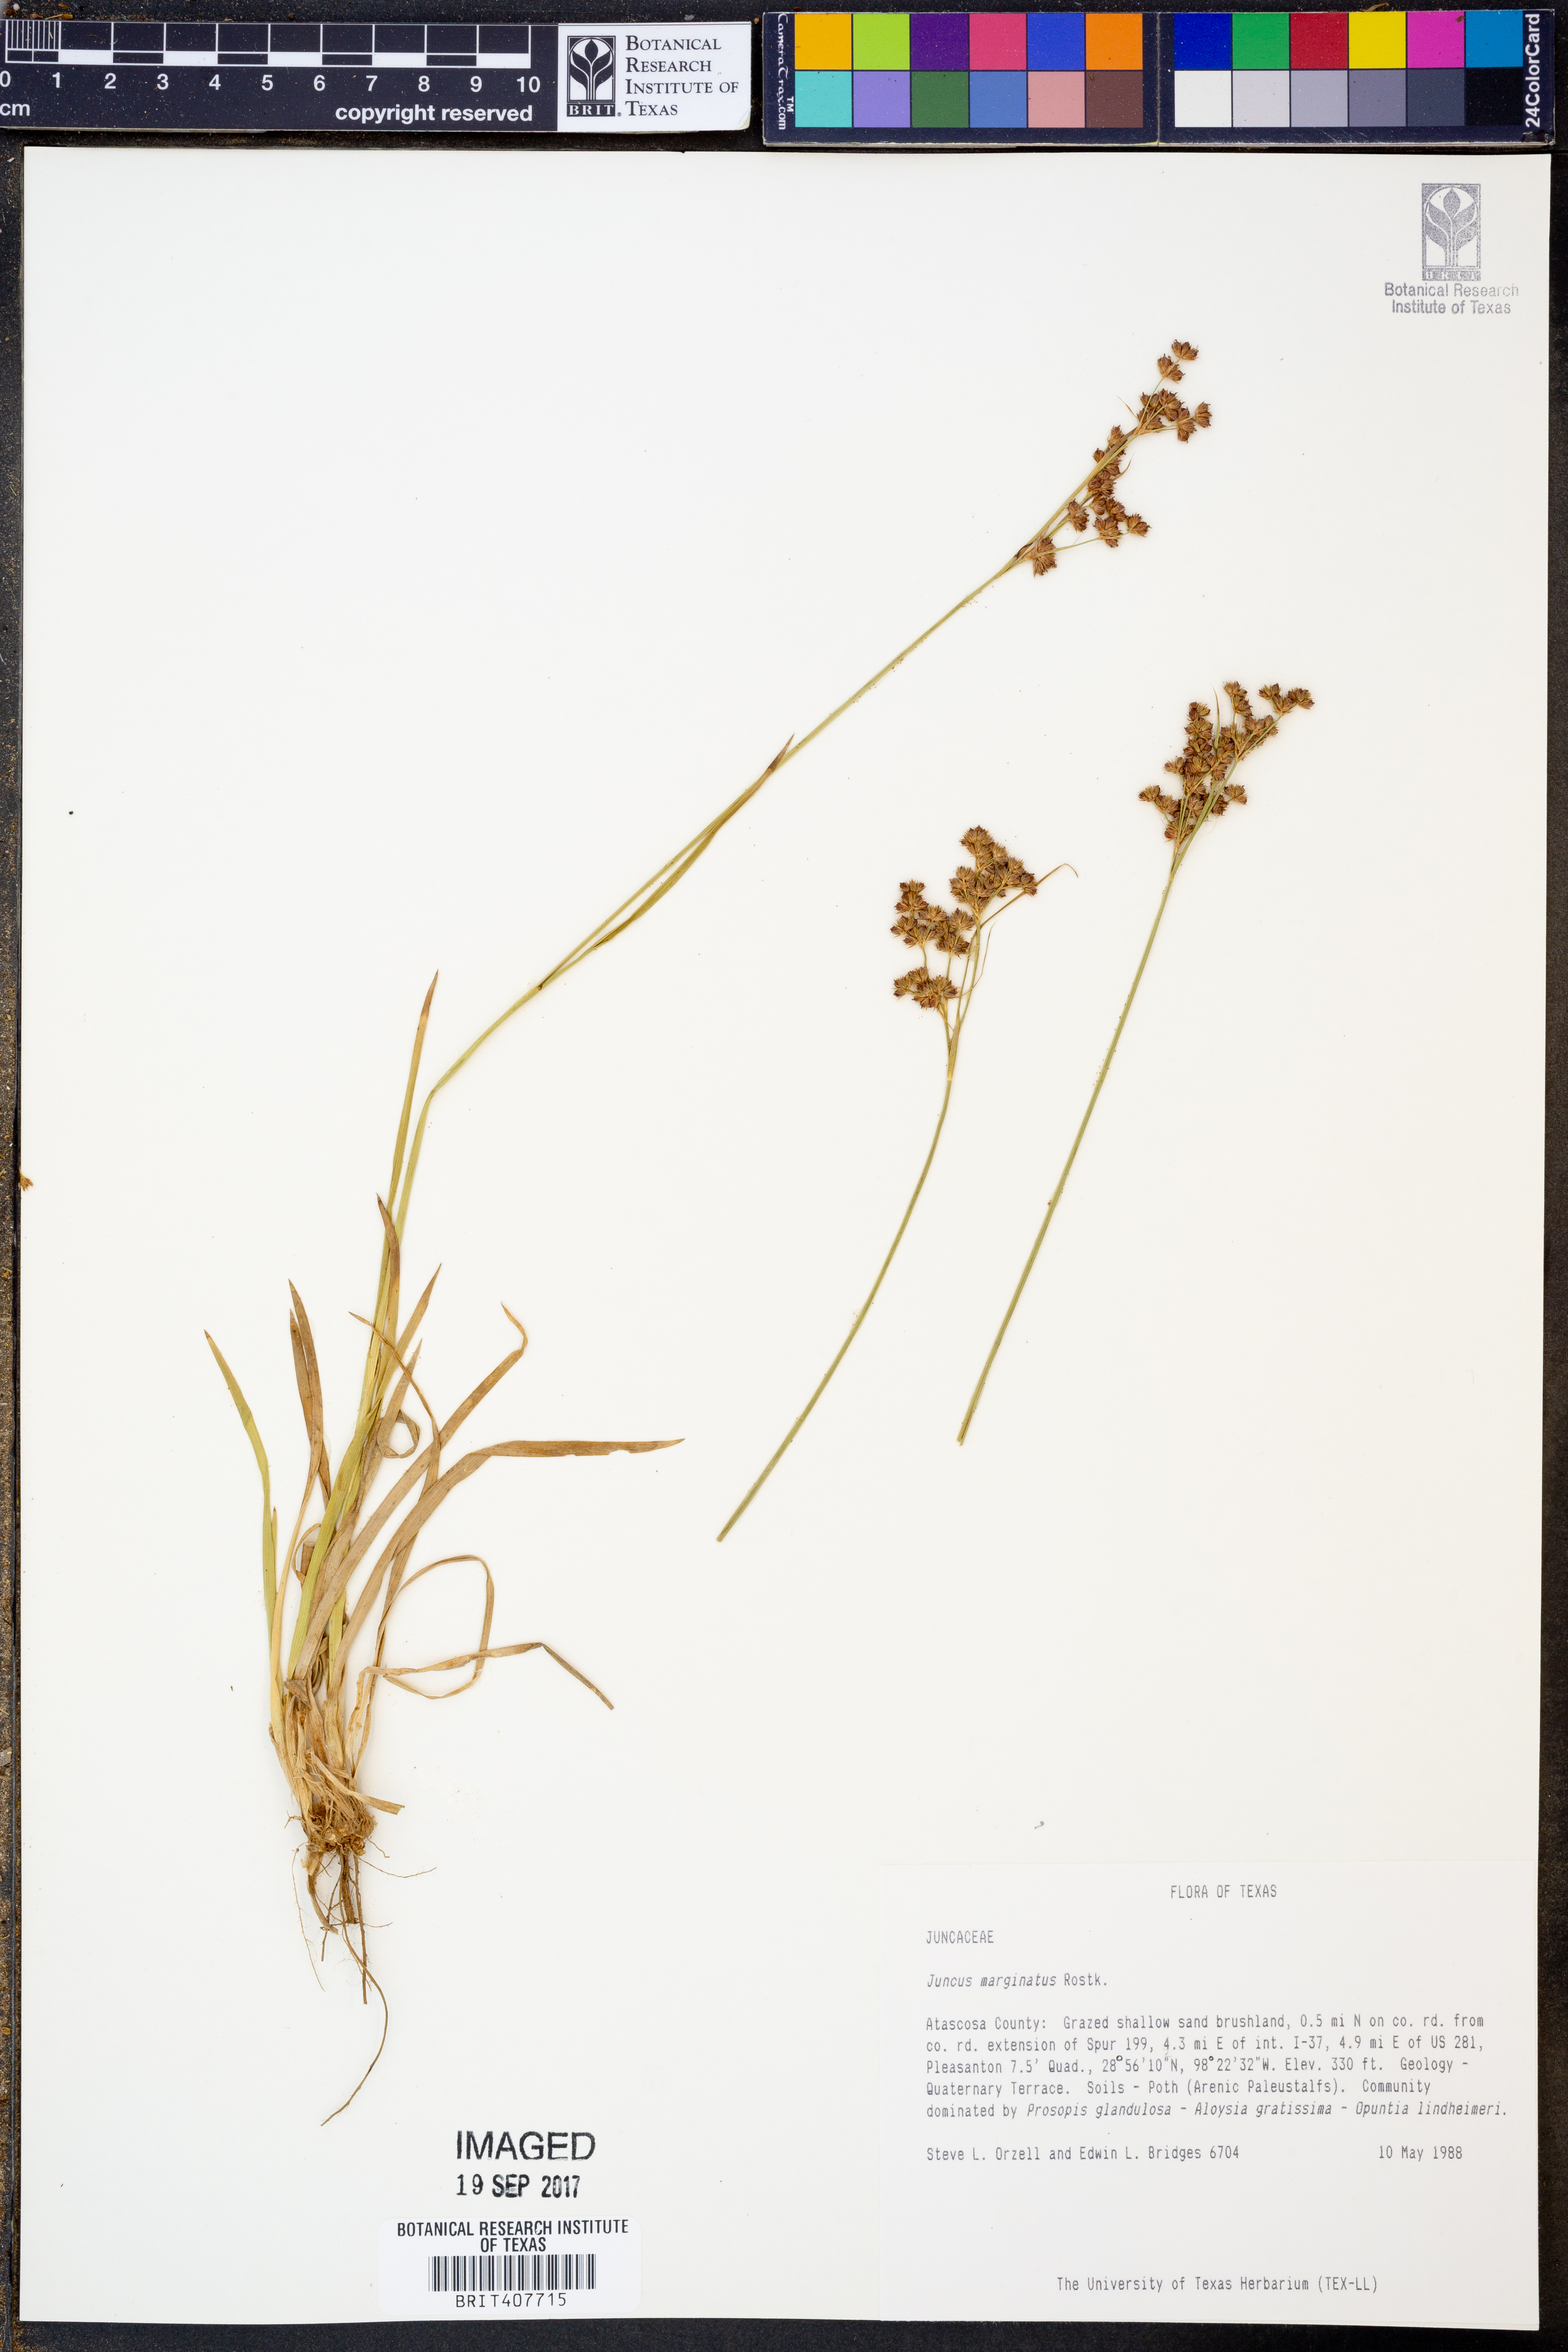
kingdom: Plantae
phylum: Tracheophyta
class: Liliopsida
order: Poales
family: Juncaceae
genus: Juncus
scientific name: Juncus marginatus
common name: Grass-leaf rush
